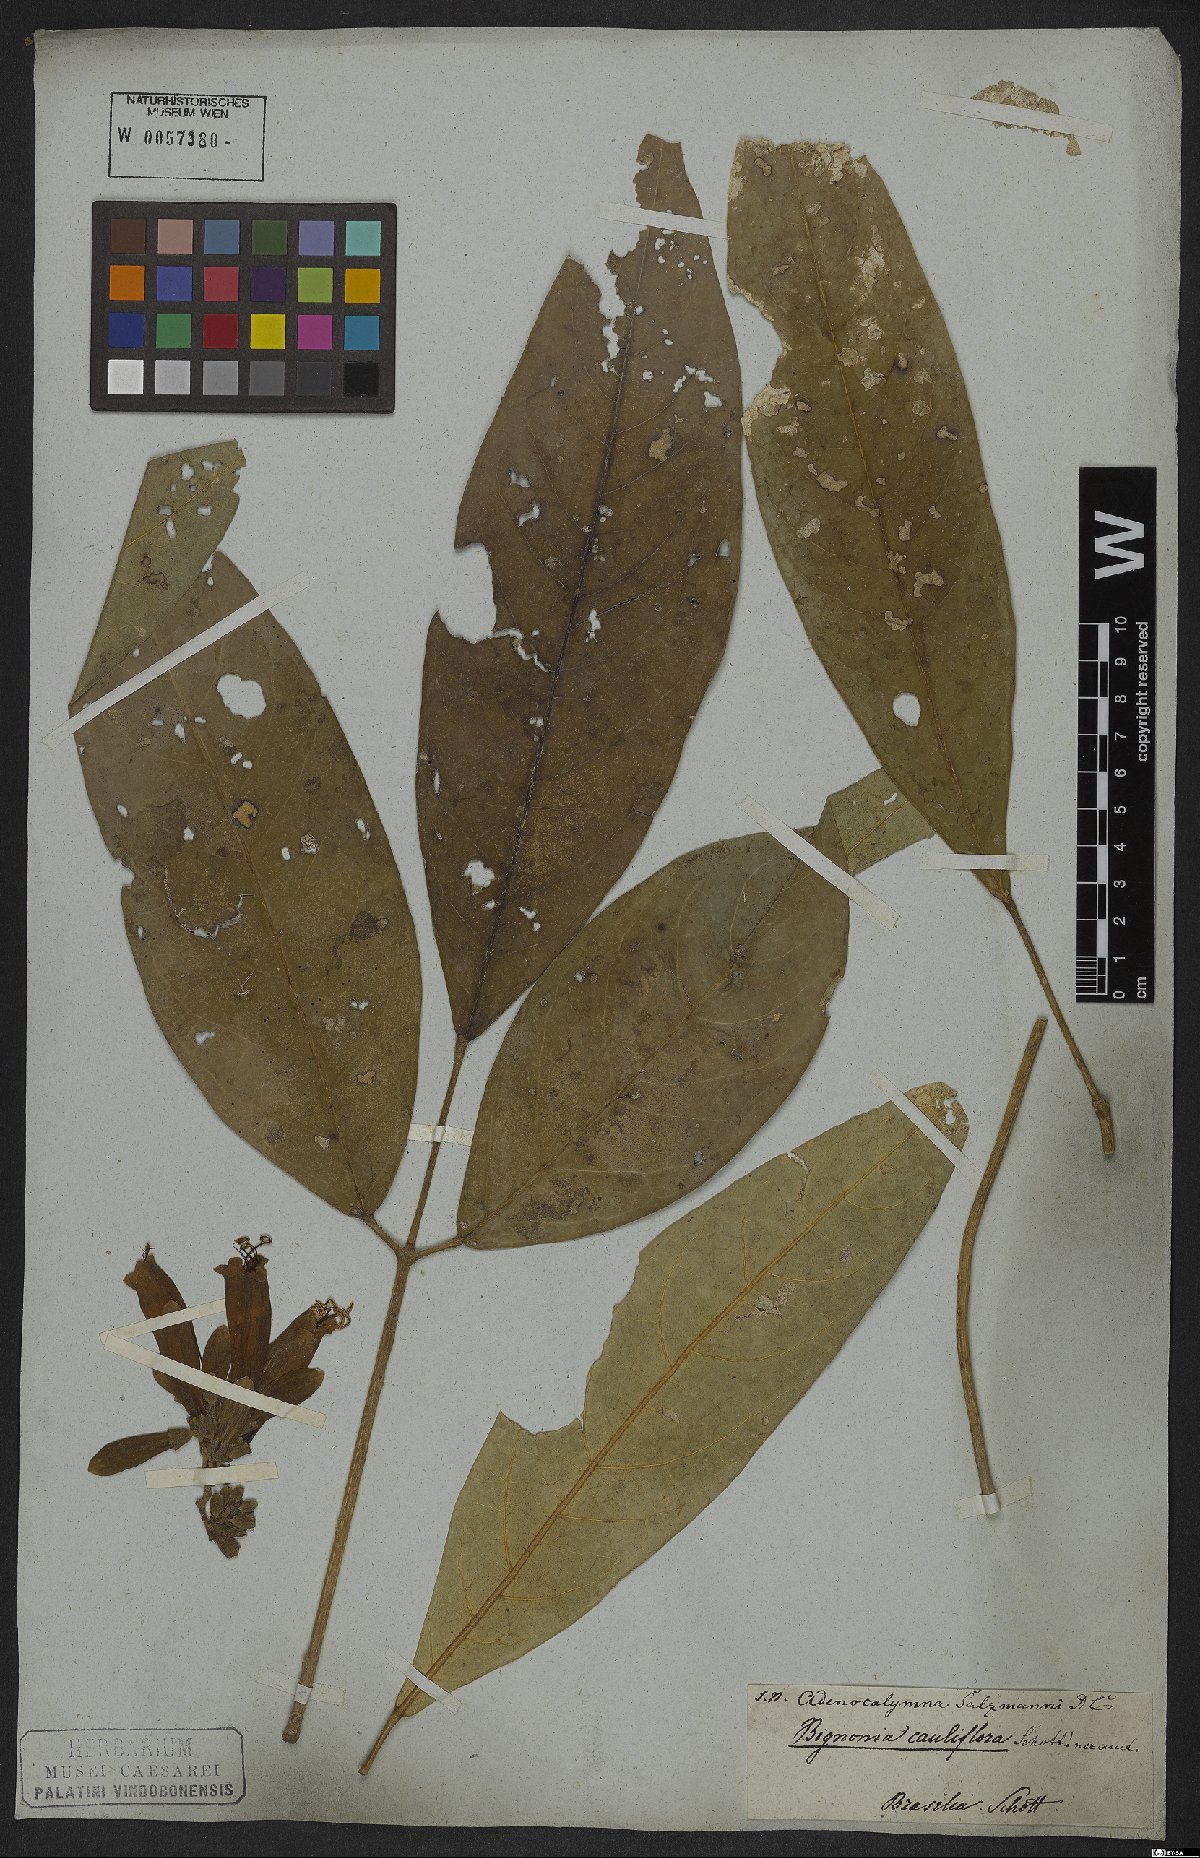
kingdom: Plantae
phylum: Tracheophyta
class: Magnoliopsida
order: Lamiales
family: Bignoniaceae
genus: Adenocalymma
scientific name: Adenocalymma coriaceum
